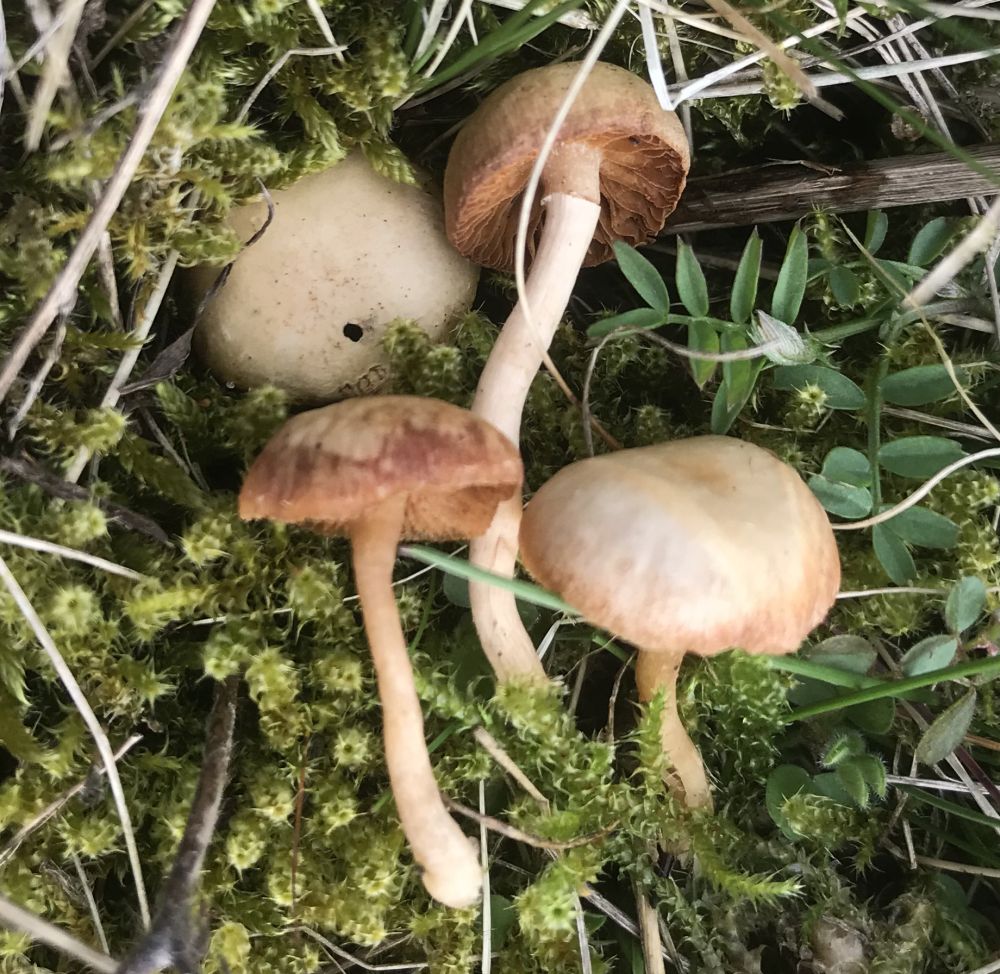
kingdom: Fungi
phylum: Basidiomycota
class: Agaricomycetes
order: Agaricales
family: Tubariaceae
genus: Tubaria
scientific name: Tubaria furfuracea
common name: kliddet fnughat
